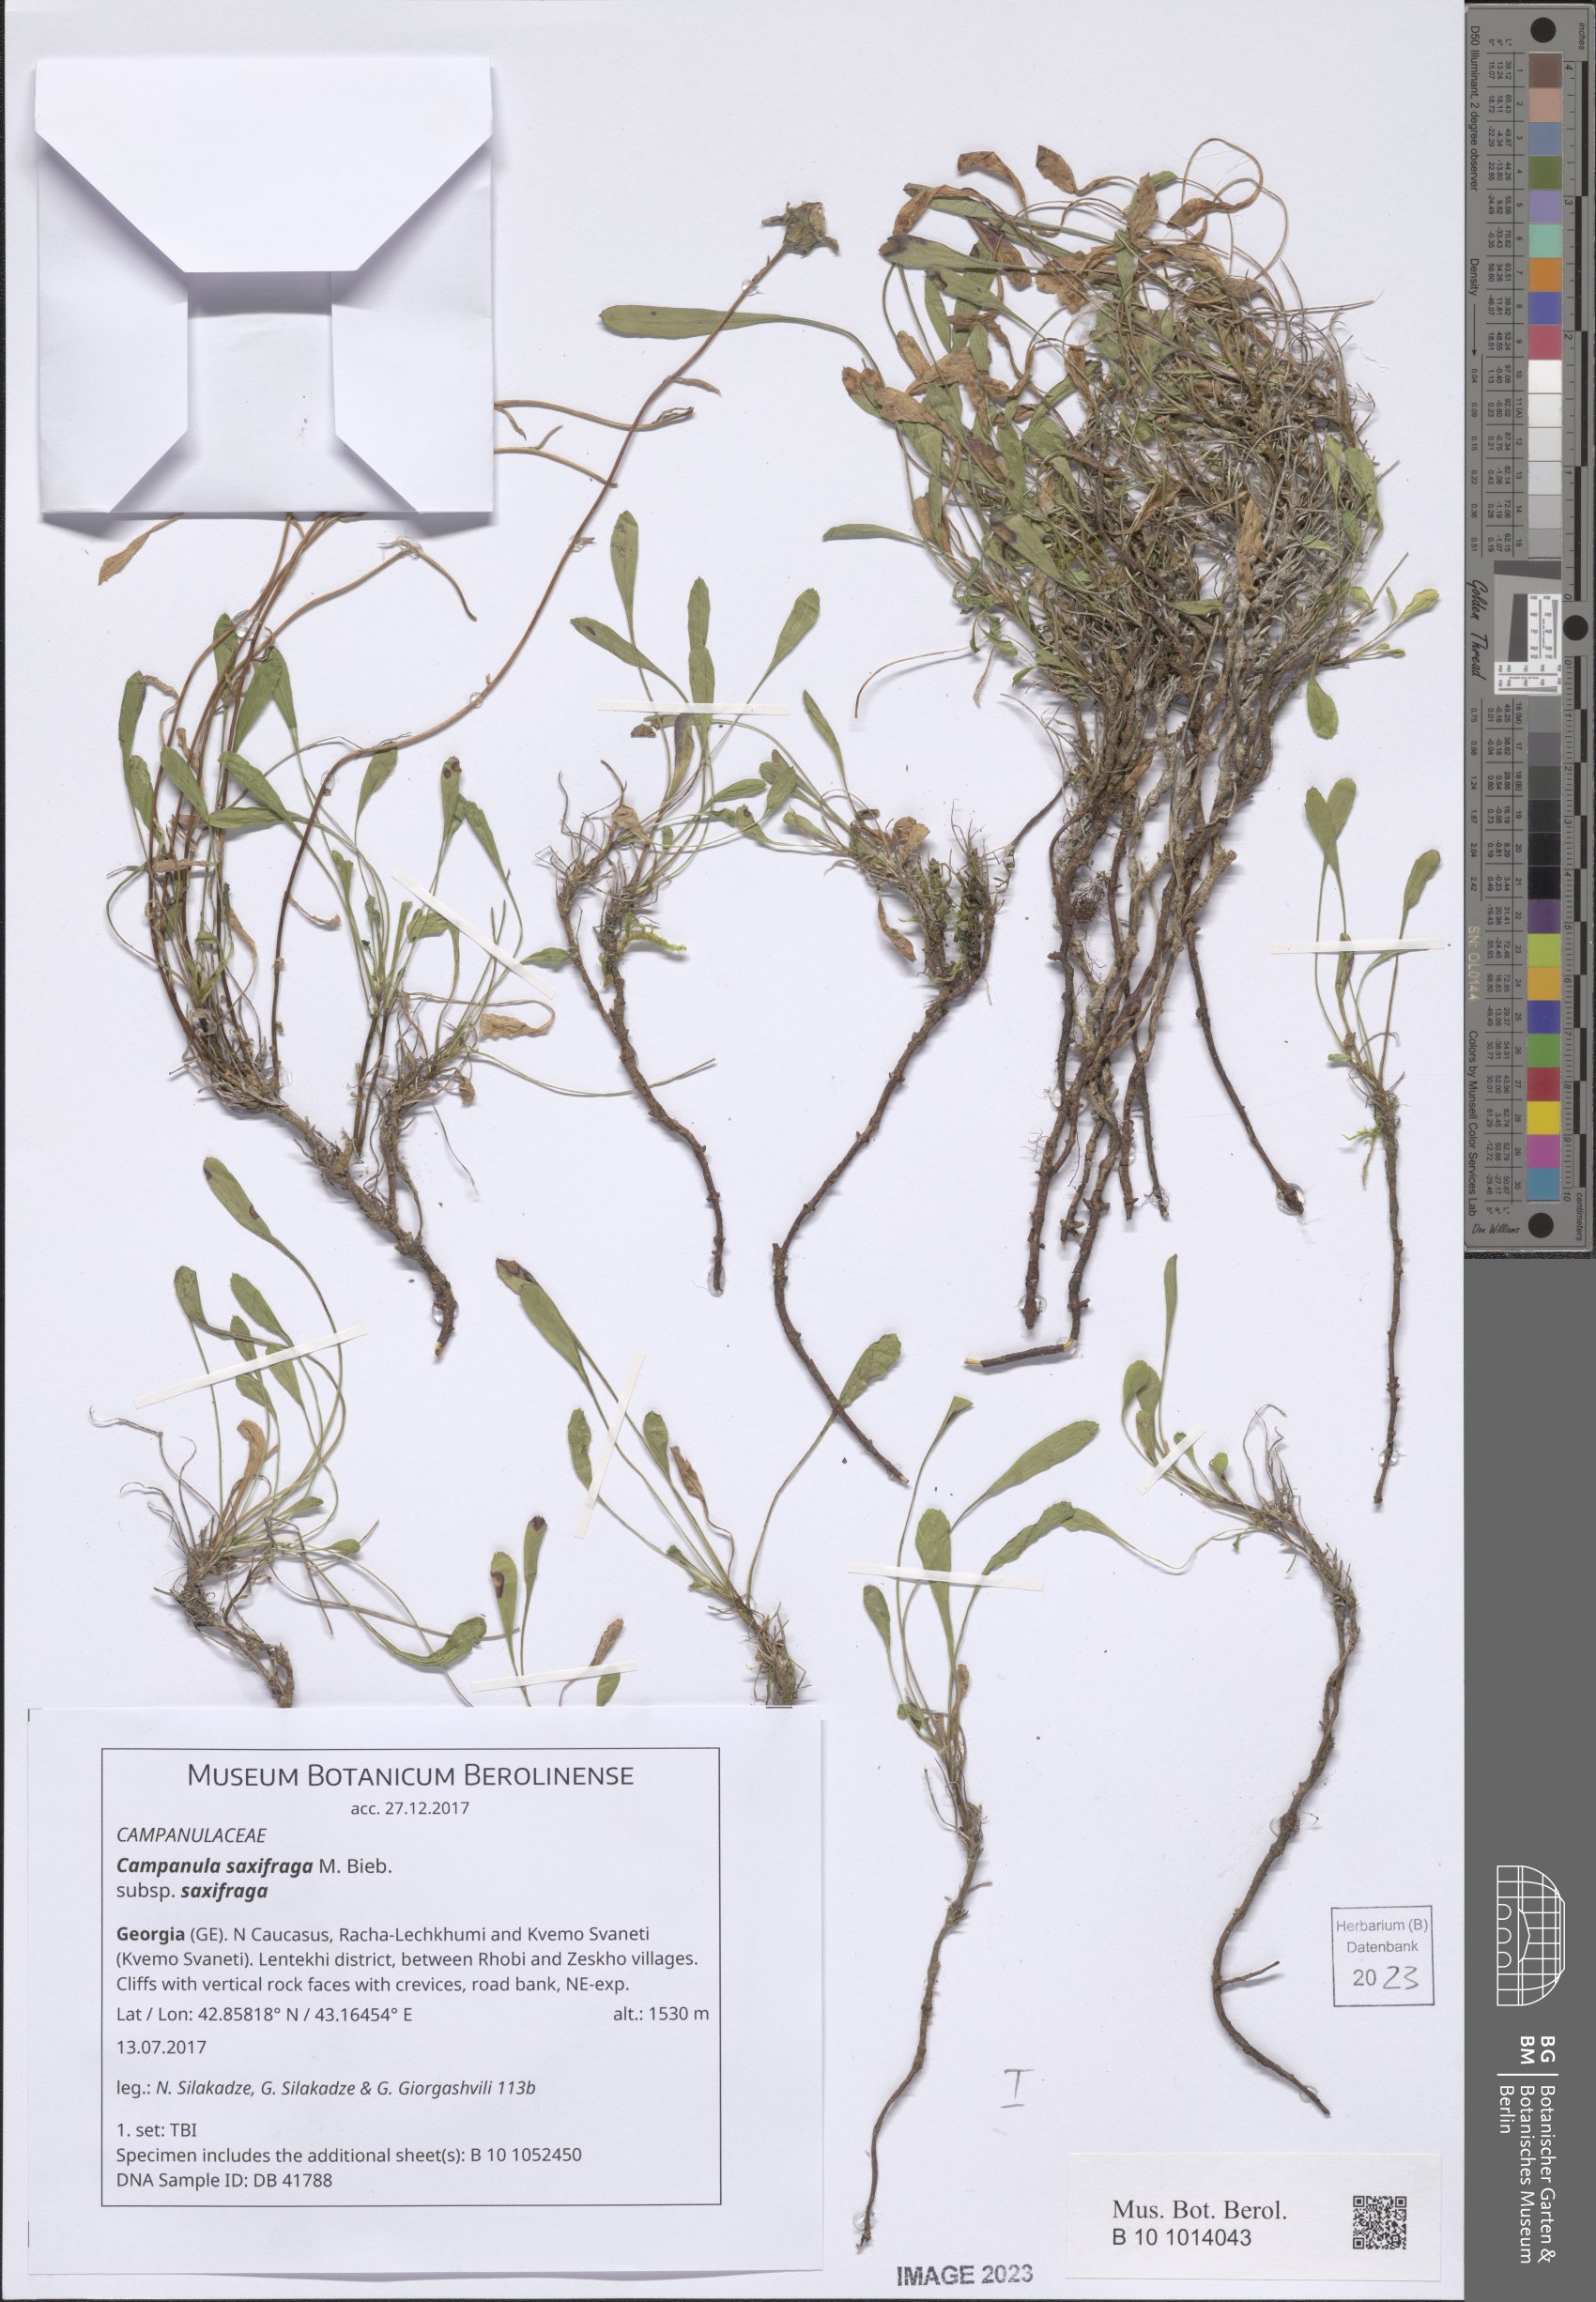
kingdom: Plantae
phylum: Tracheophyta
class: Magnoliopsida
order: Asterales
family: Campanulaceae
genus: Campanula
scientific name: Campanula saxifraga
